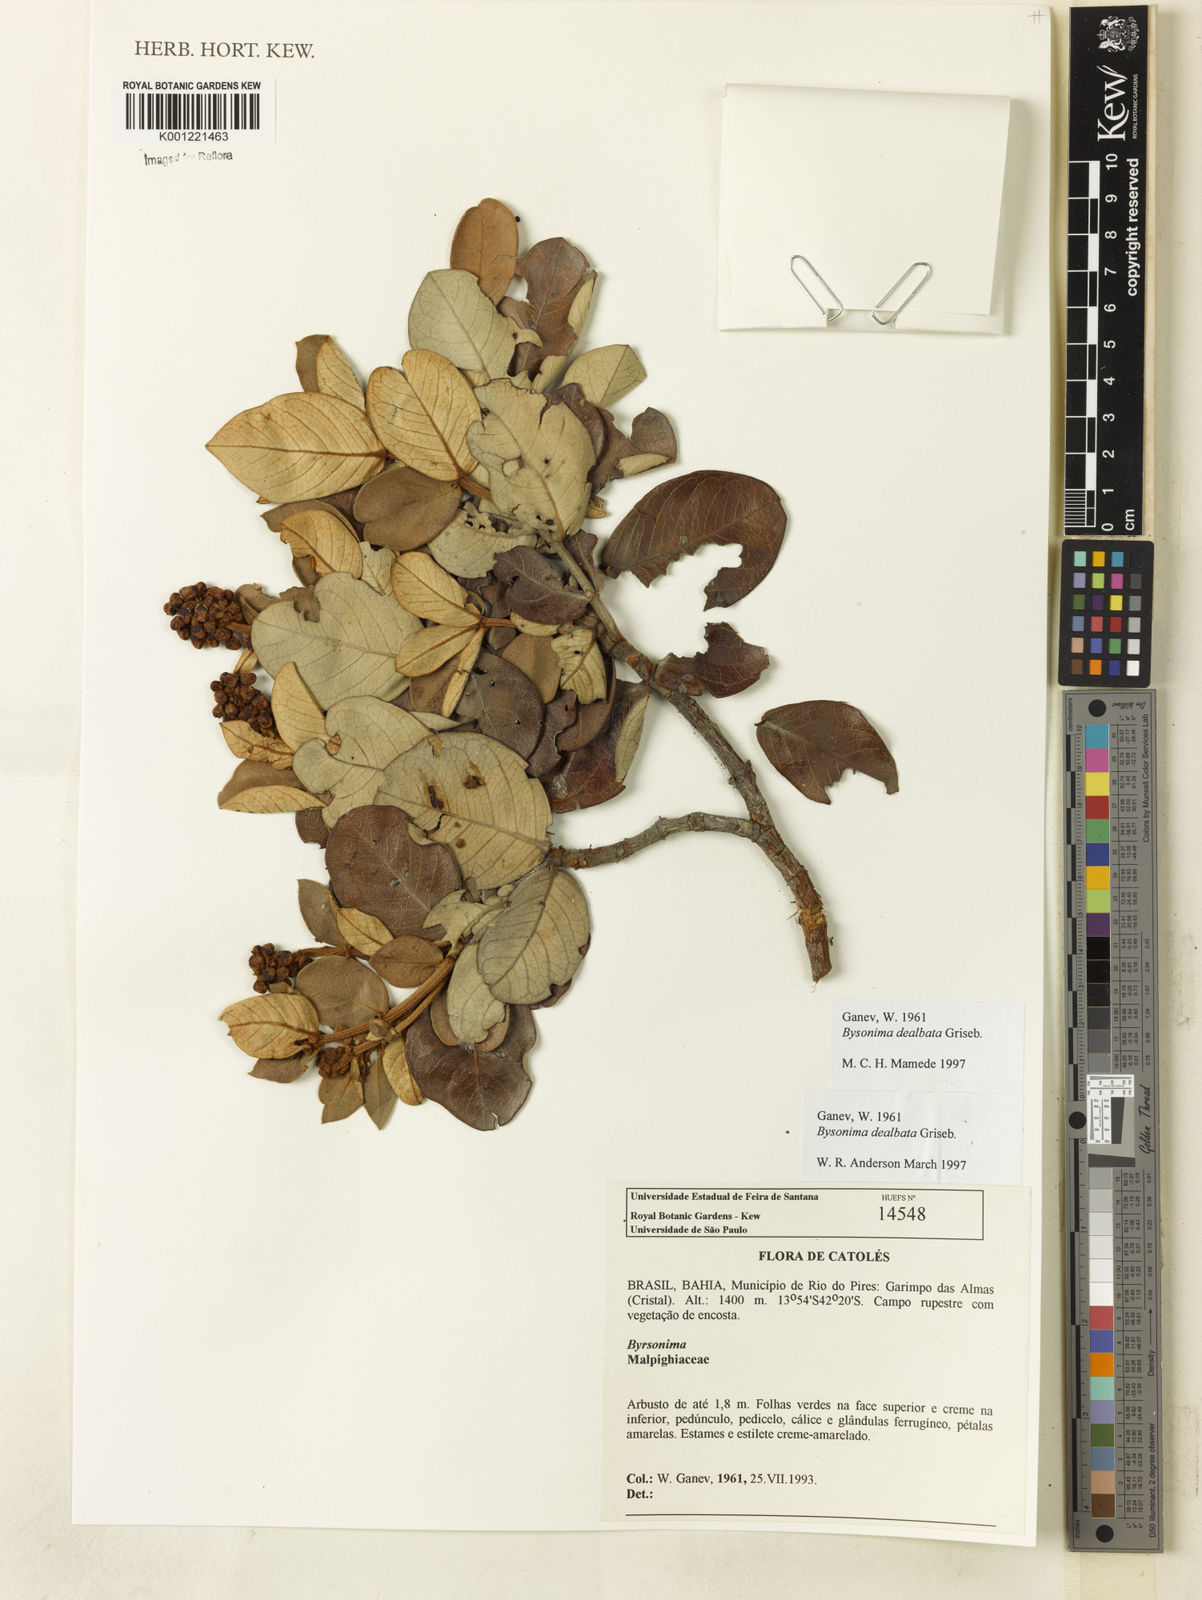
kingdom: Plantae
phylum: Tracheophyta
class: Magnoliopsida
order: Malpighiales
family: Malpighiaceae
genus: Byrsonima
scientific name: Byrsonima dealbata
